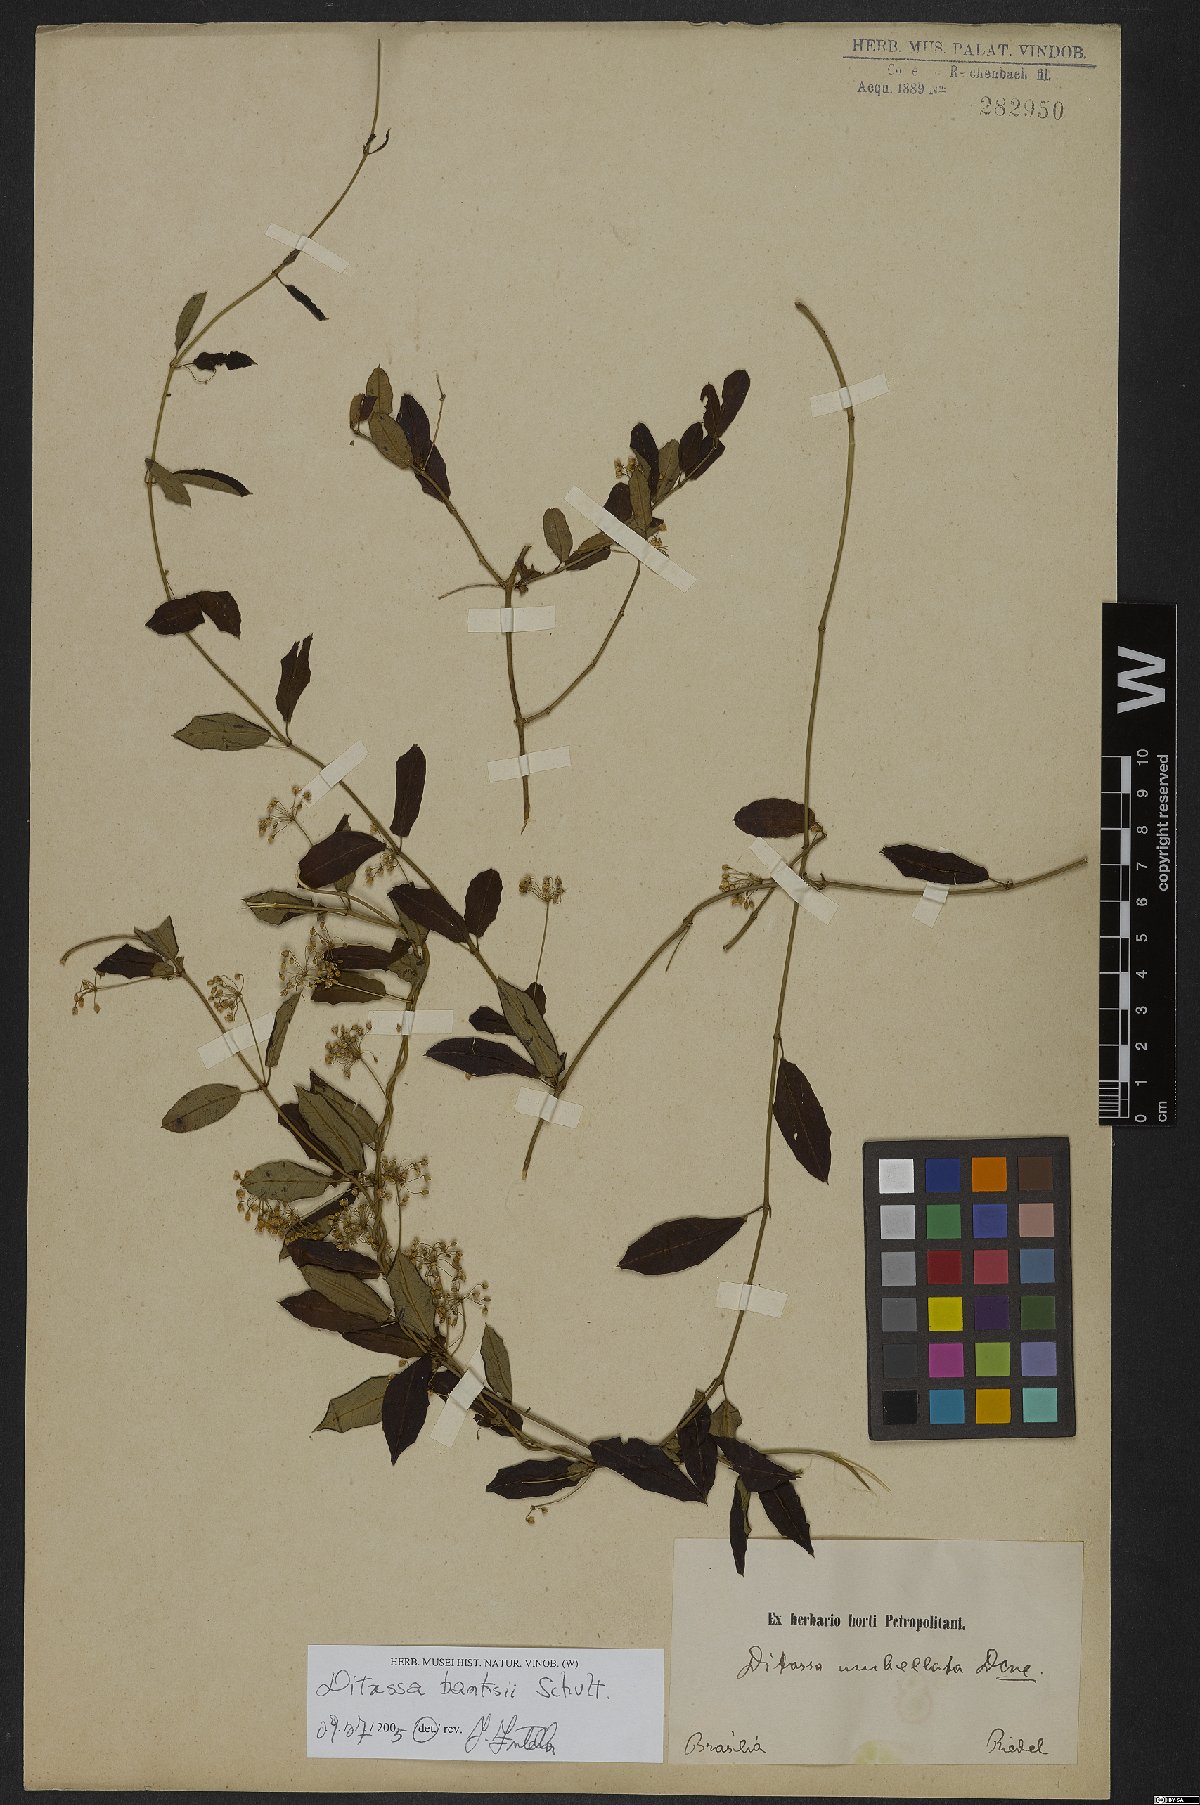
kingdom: Plantae
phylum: Tracheophyta
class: Magnoliopsida
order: Gentianales
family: Apocynaceae
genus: Ditassa
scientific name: Ditassa banksii
